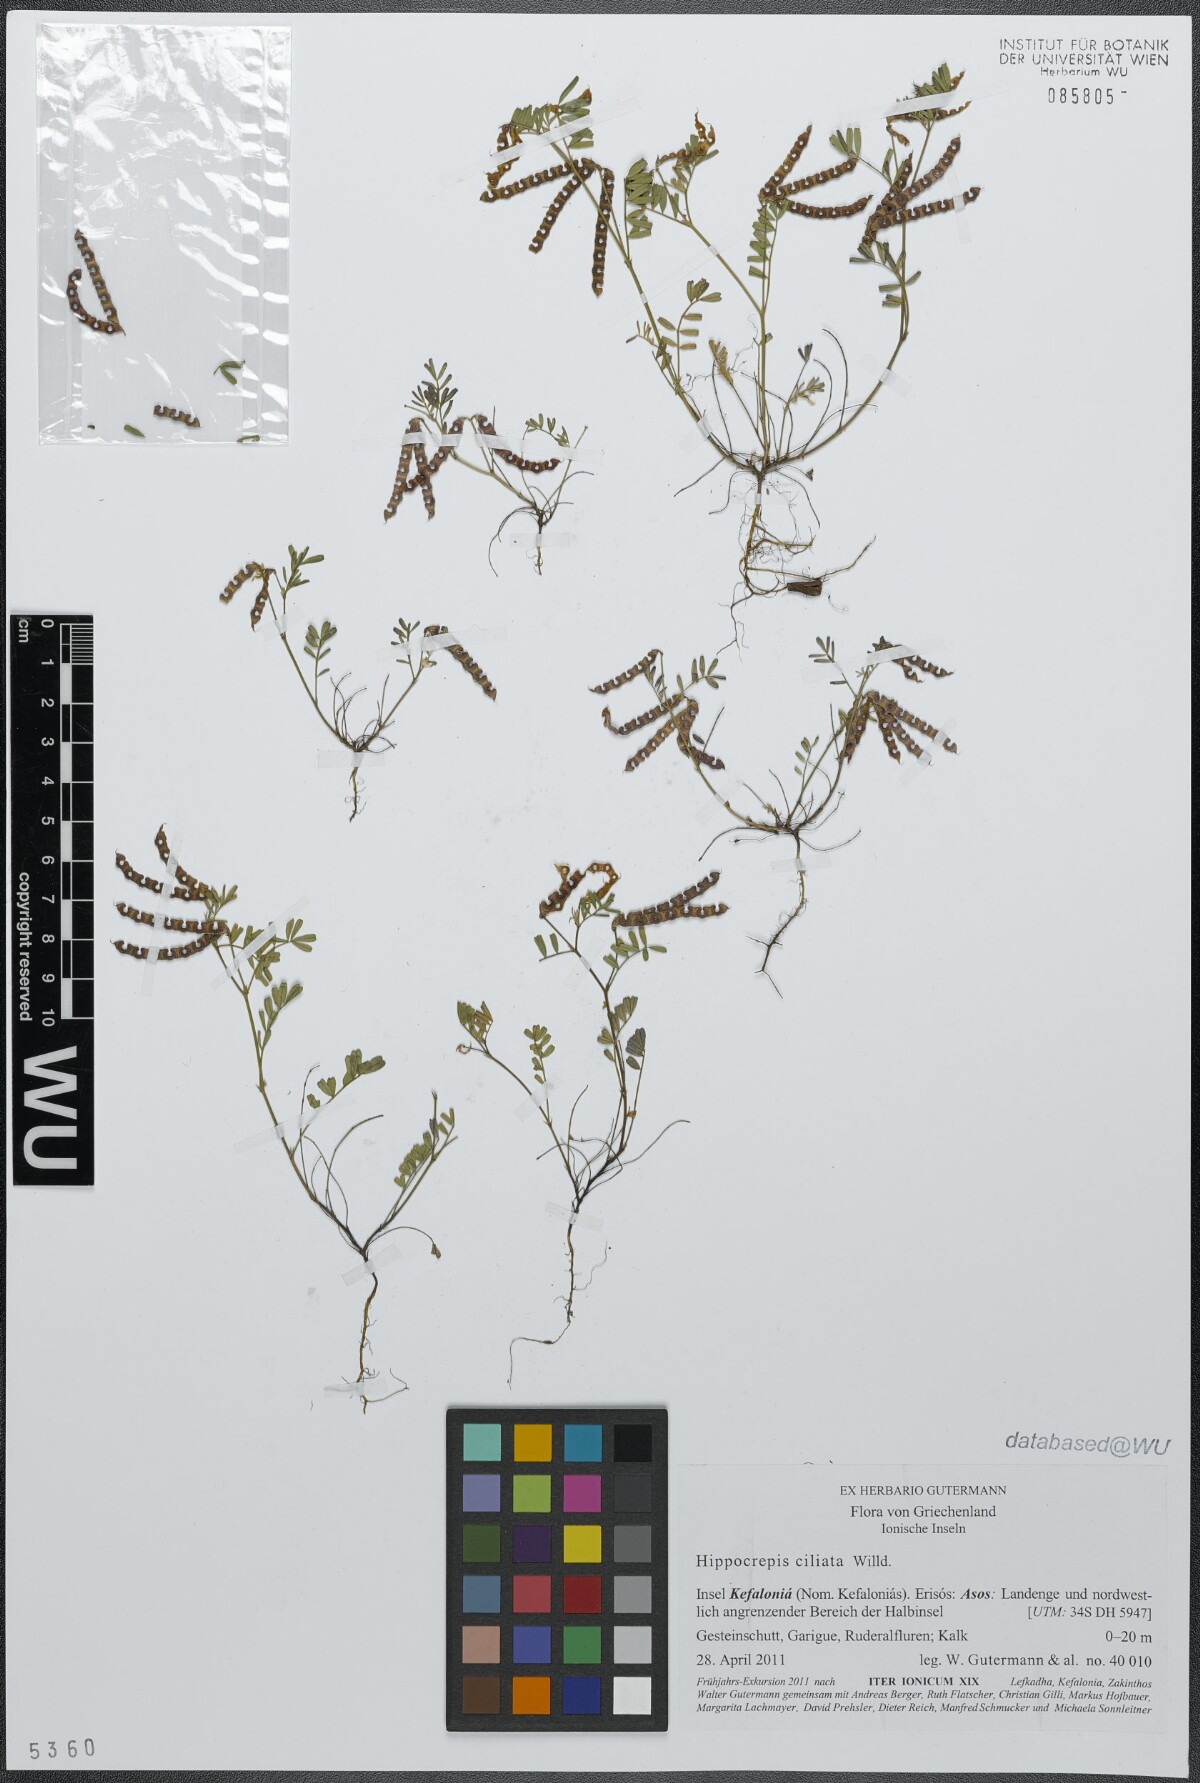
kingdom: Plantae
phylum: Tracheophyta
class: Magnoliopsida
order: Fabales
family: Fabaceae
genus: Hippocrepis
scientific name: Hippocrepis ciliata
